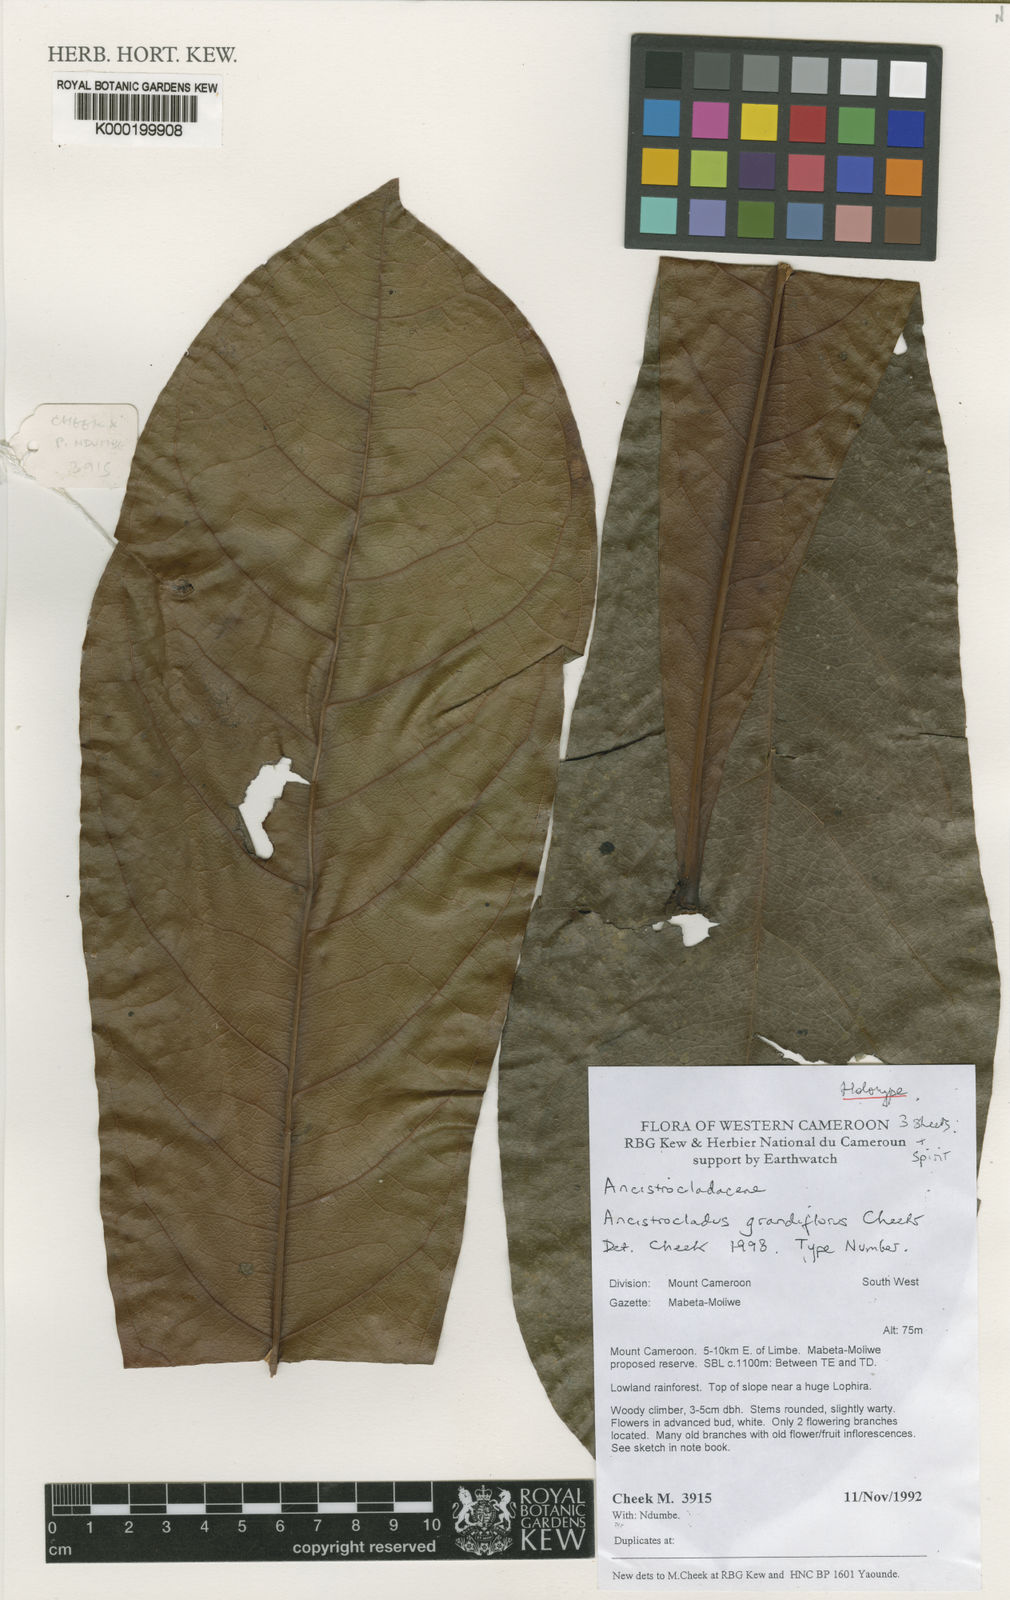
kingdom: Plantae
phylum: Tracheophyta
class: Magnoliopsida
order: Caryophyllales
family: Ancistrocladaceae
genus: Ancistrocladus
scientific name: Ancistrocladus grandiflorus
